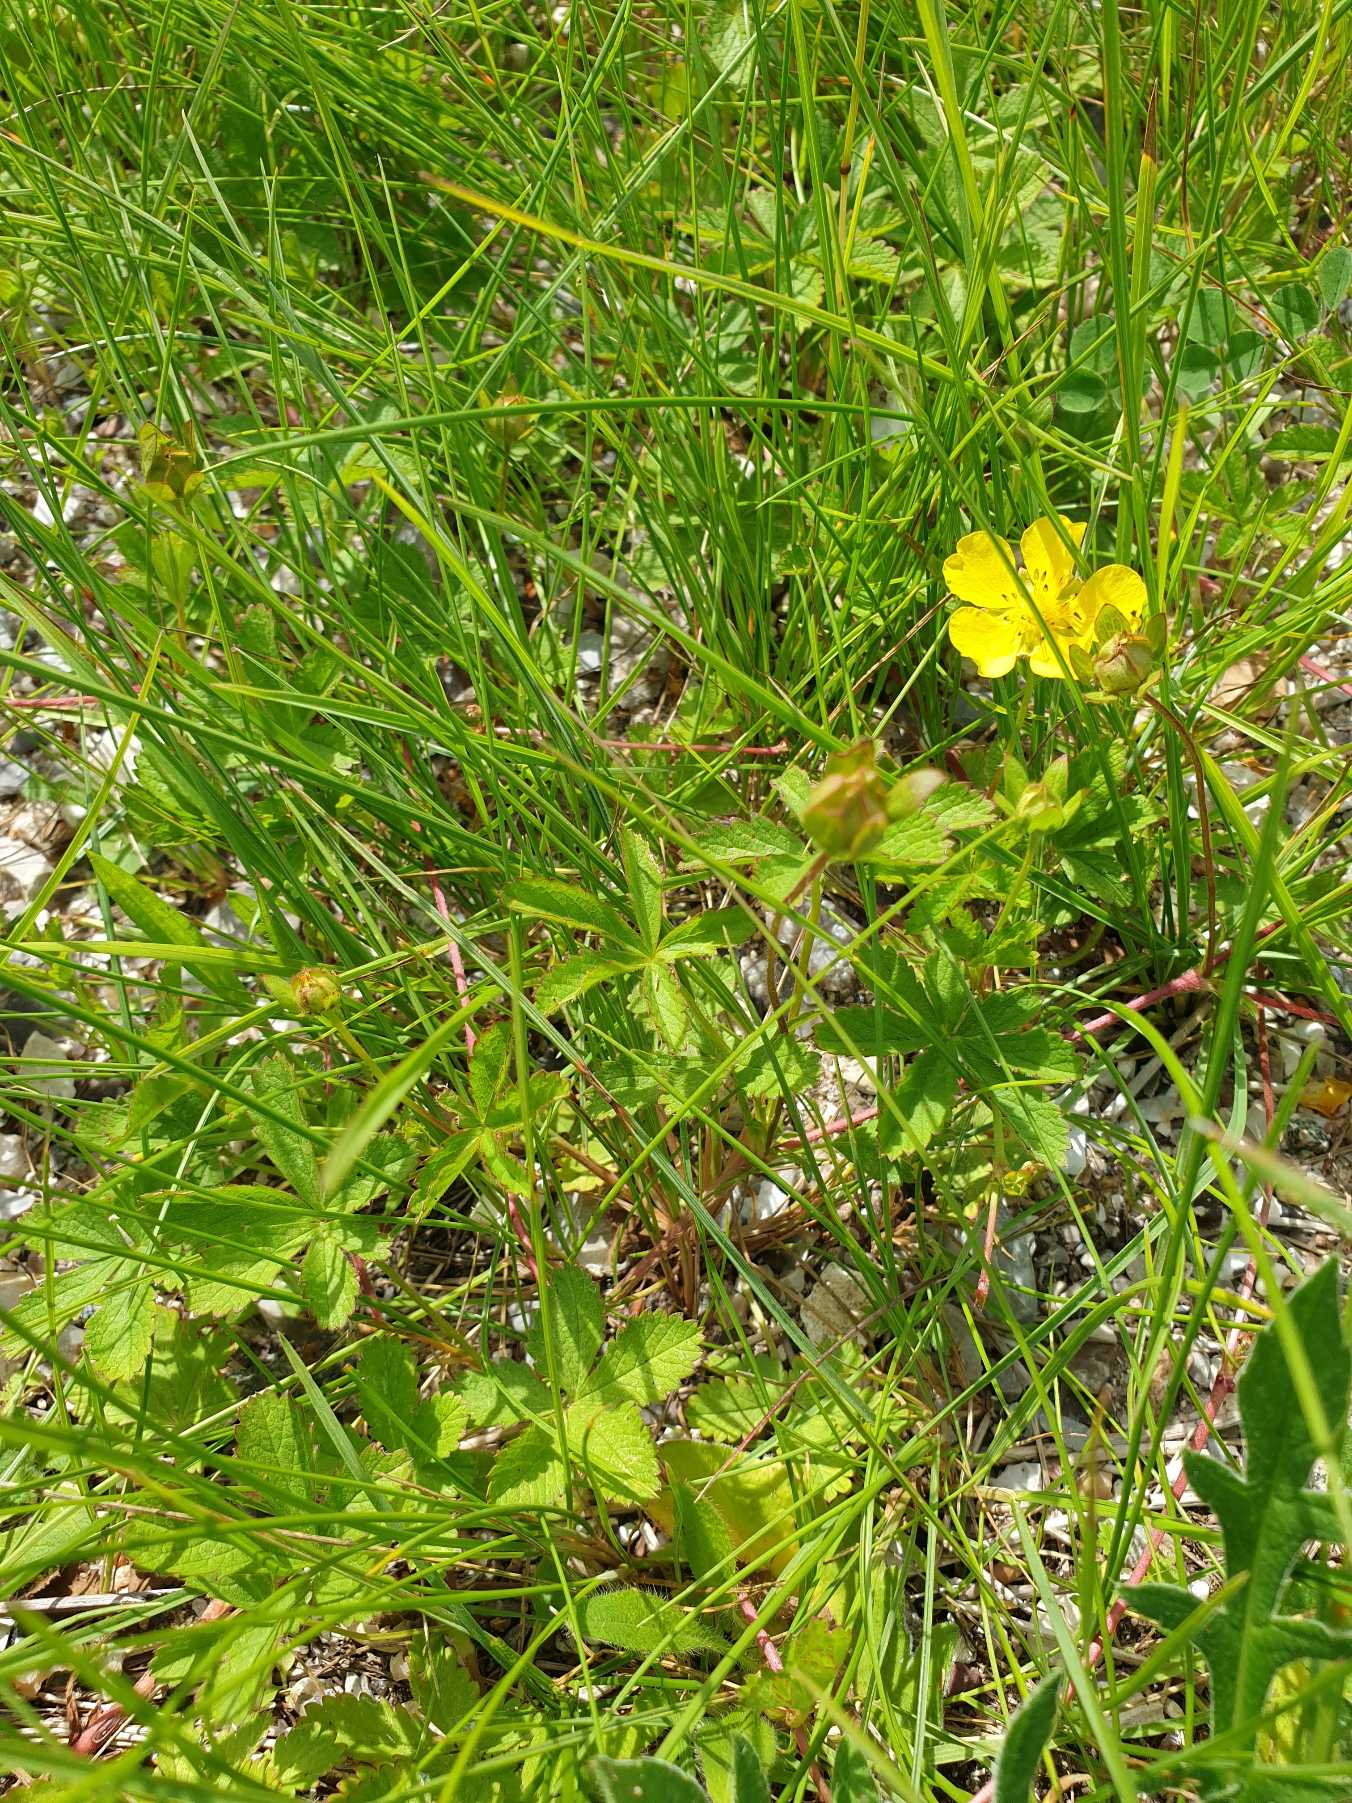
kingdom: Plantae
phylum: Tracheophyta
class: Magnoliopsida
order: Rosales
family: Rosaceae
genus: Potentilla
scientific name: Potentilla reptans
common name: Krybende potentil
